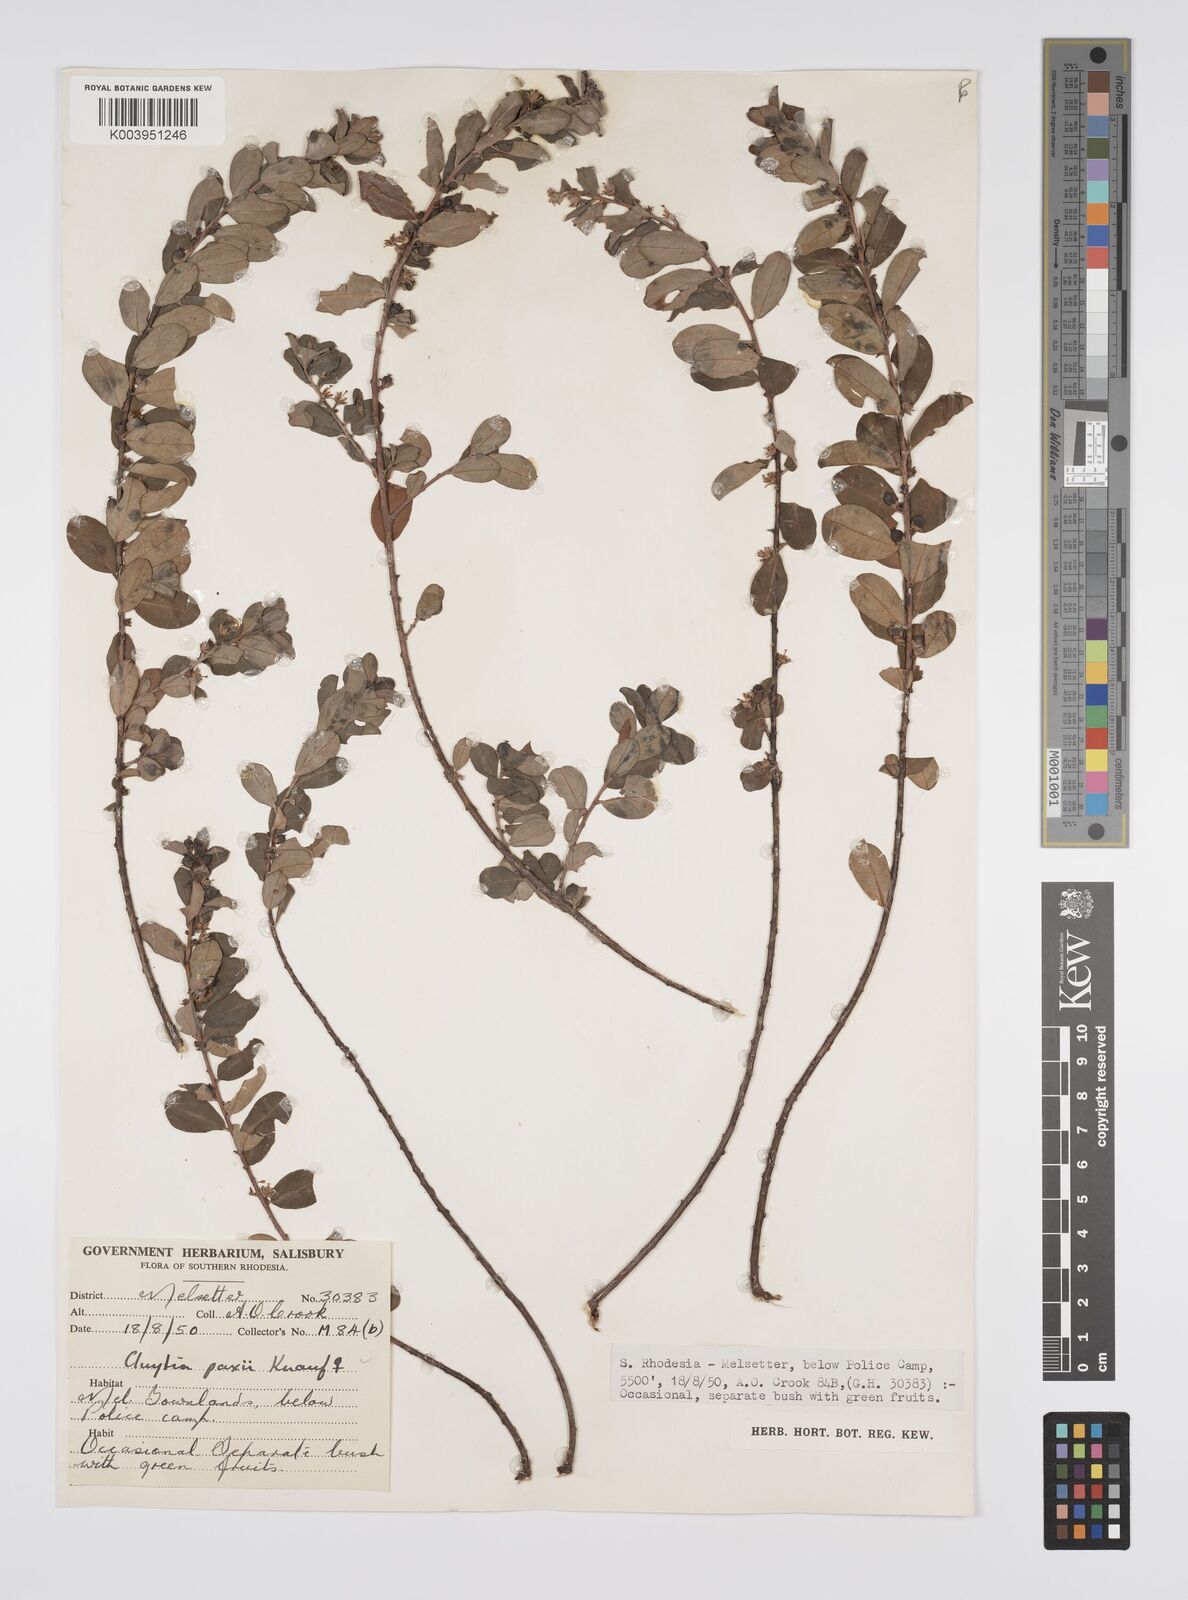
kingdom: Plantae
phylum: Tracheophyta
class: Magnoliopsida
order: Malpighiales
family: Peraceae
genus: Clutia
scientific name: Clutia paxii
